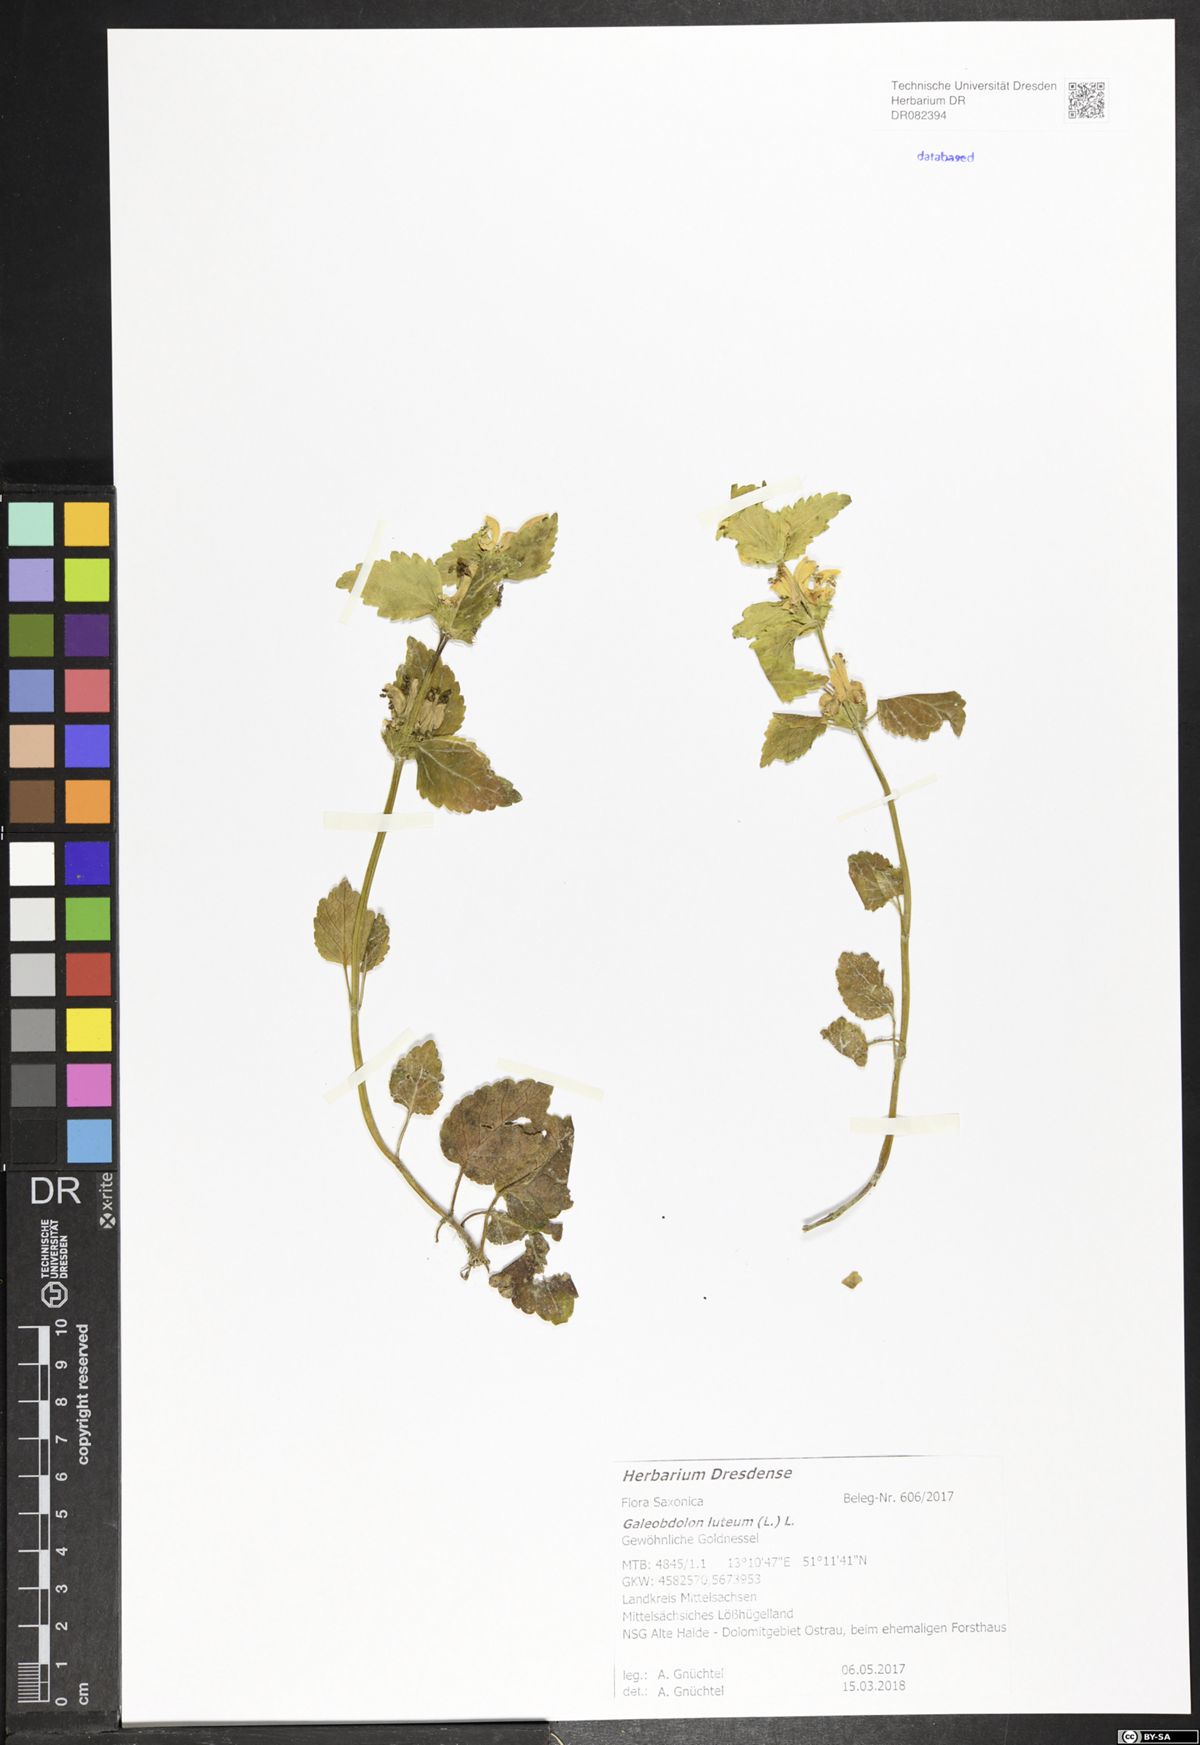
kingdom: Plantae
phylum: Tracheophyta
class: Magnoliopsida
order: Lamiales
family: Lamiaceae
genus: Lamium
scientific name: Lamium galeobdolon
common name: Yellow archangel
